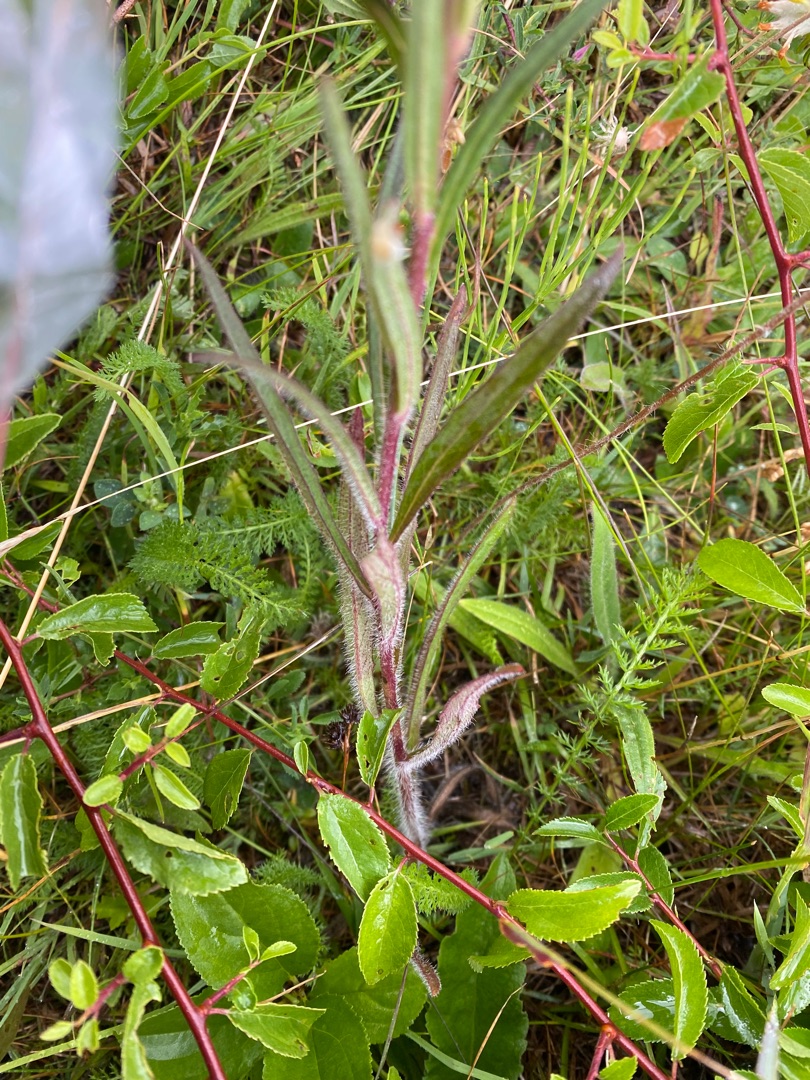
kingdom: Plantae
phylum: Tracheophyta
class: Magnoliopsida
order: Asterales
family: Asteraceae
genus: Hieracium
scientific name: Hieracium umbellatum
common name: Smalbladet høgeurt
